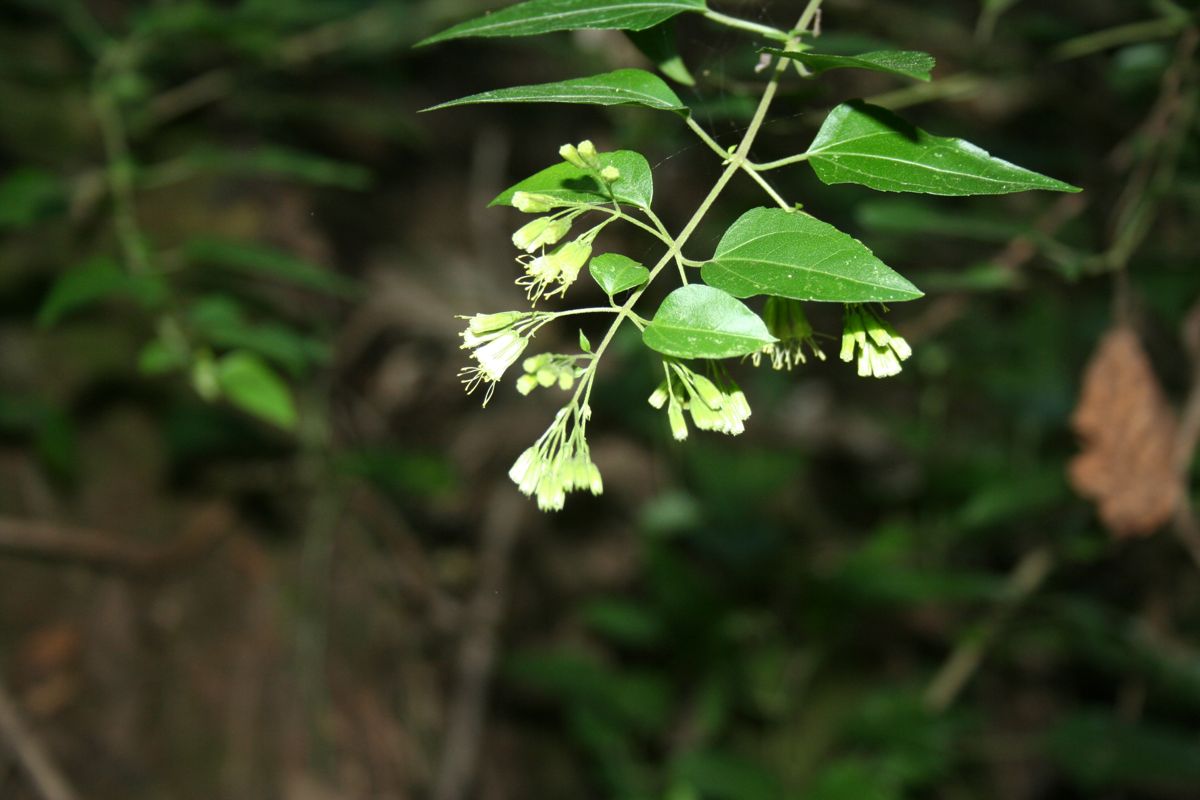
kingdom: Plantae
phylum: Tracheophyta
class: Magnoliopsida
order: Asterales
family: Asteraceae
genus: Koanophyllon
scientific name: Koanophyllon coulteri
